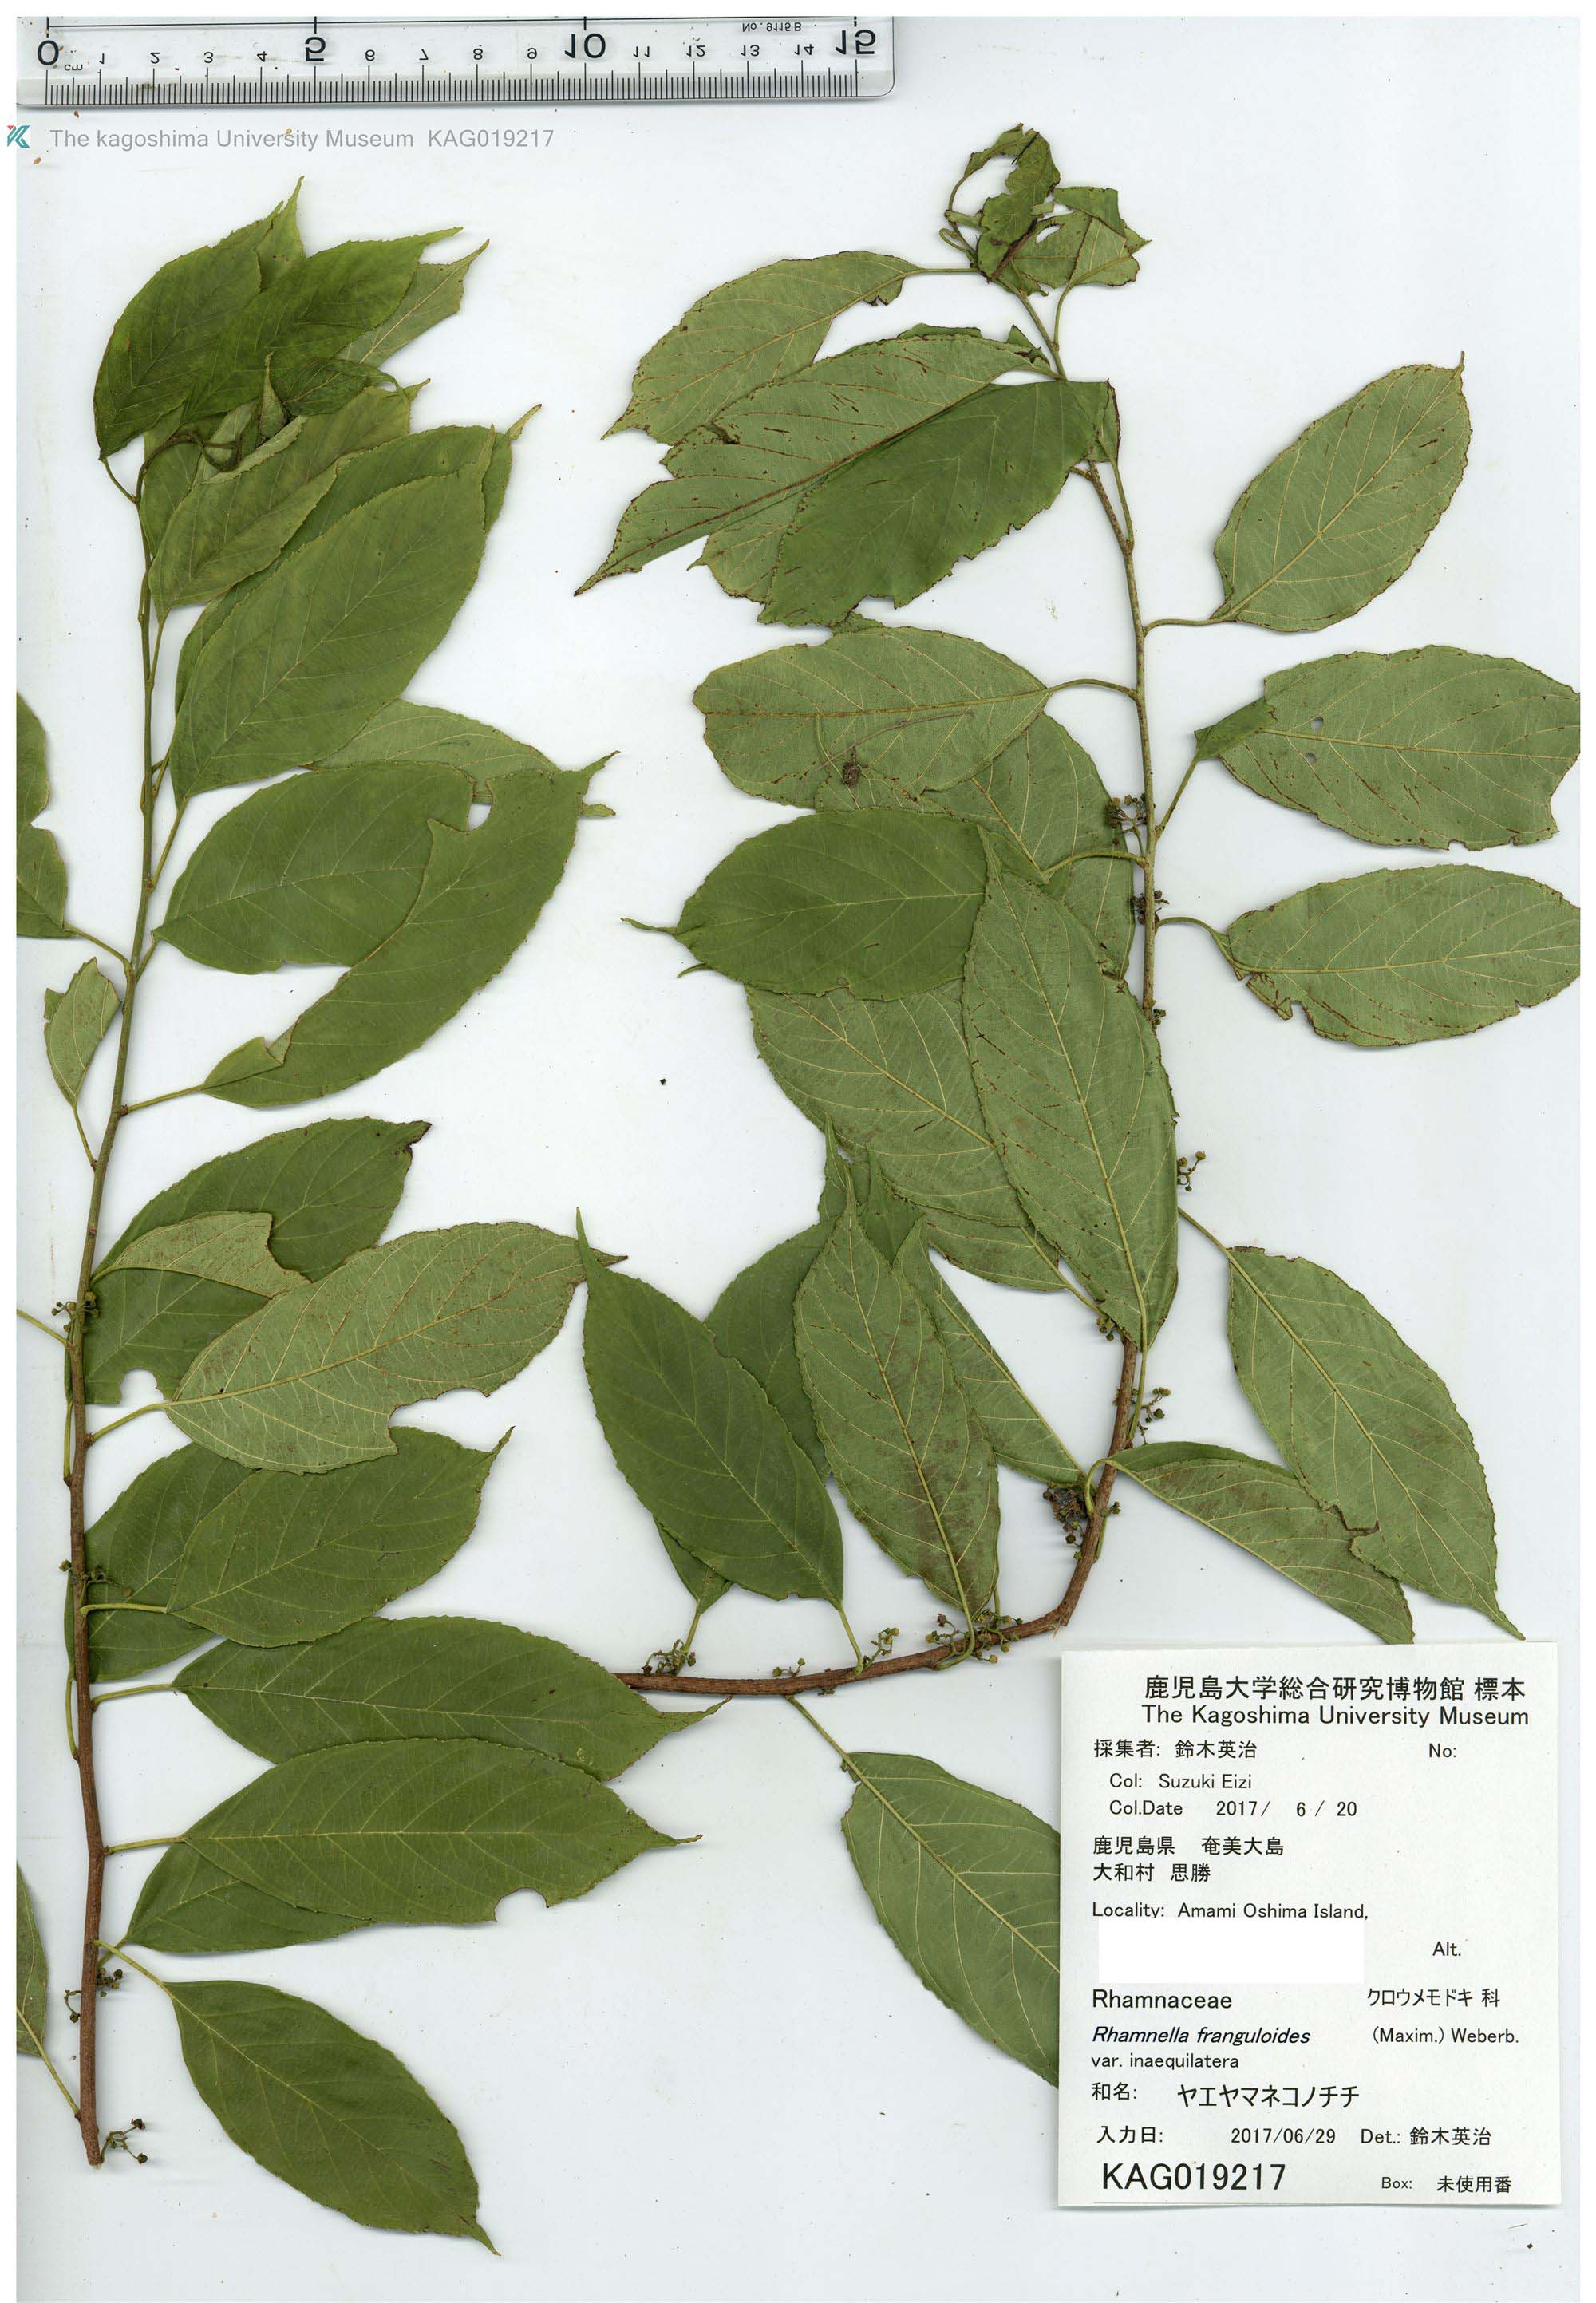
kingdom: Plantae
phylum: Tracheophyta
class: Magnoliopsida
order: Rosales
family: Rhamnaceae
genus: Rhamnella
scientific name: Rhamnella franguloides
